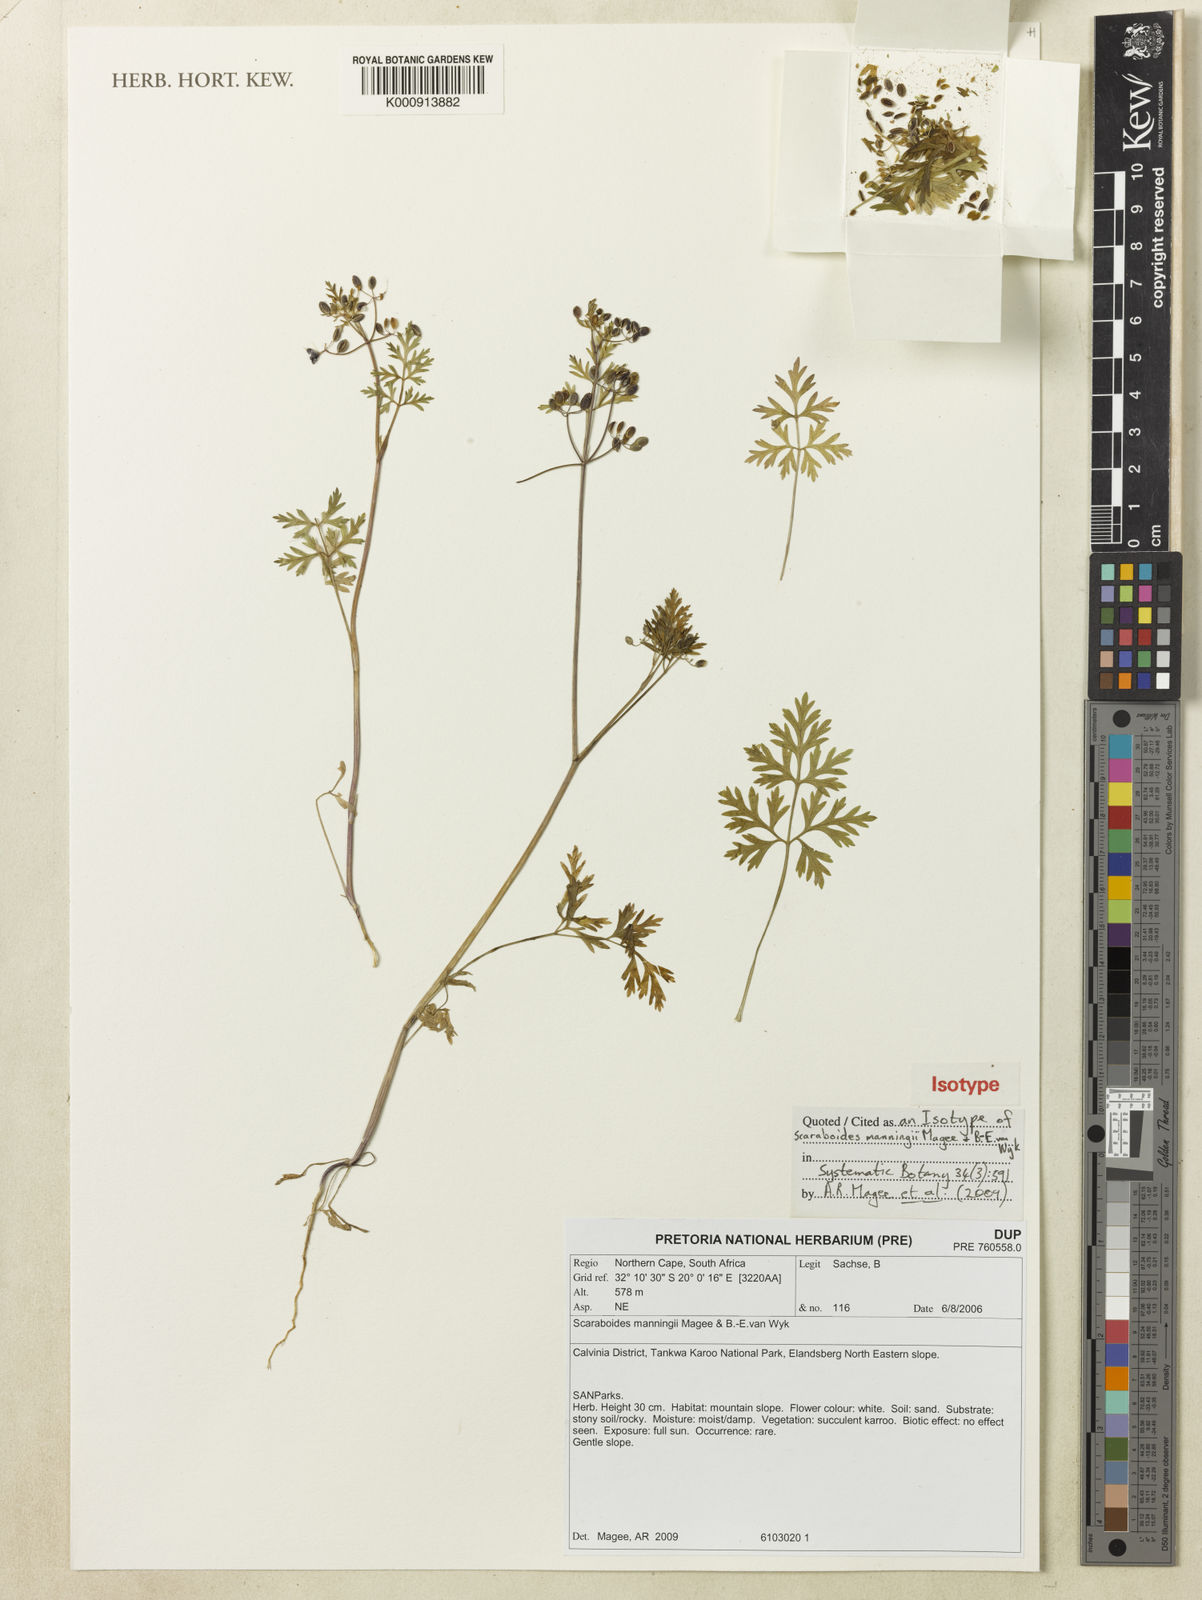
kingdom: Plantae
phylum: Tracheophyta
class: Magnoliopsida
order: Apiales
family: Apiaceae
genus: Scaraboides
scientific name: Scaraboides manningii
